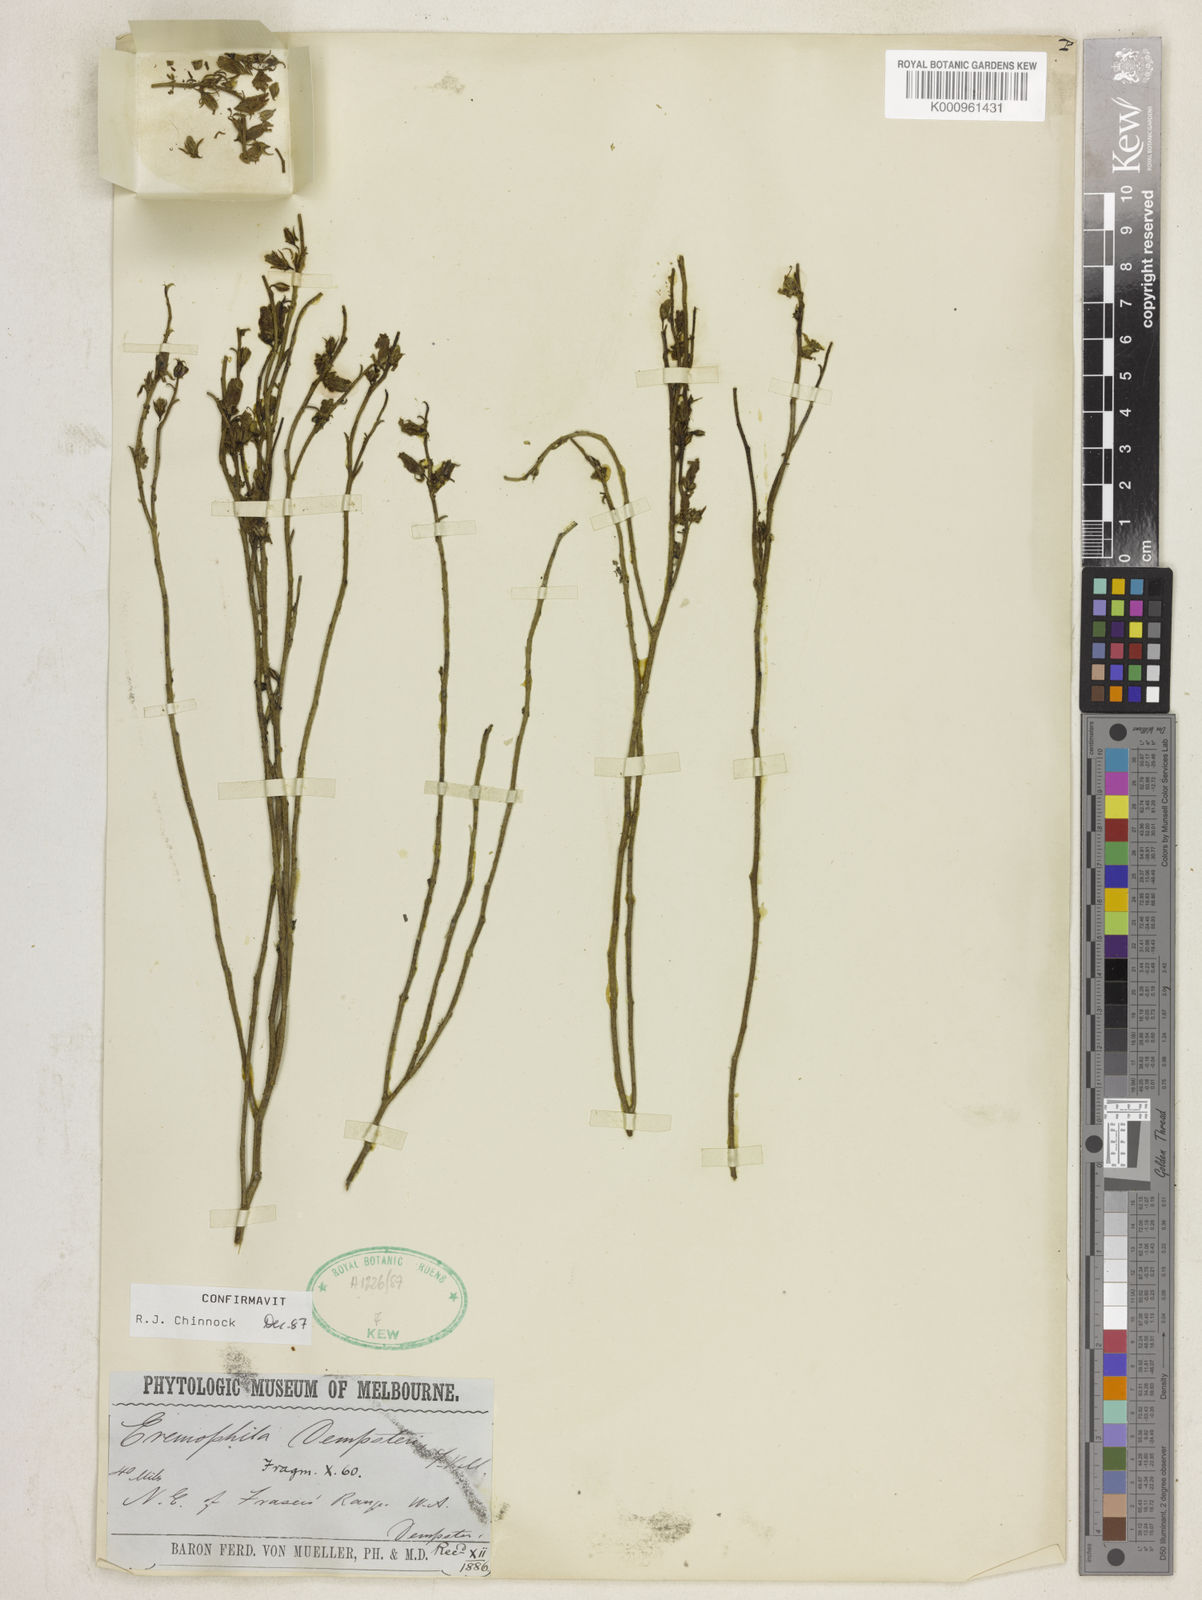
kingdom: Plantae
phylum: Tracheophyta
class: Magnoliopsida
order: Lamiales
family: Scrophulariaceae
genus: Eremophila
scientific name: Eremophila dempsteri
